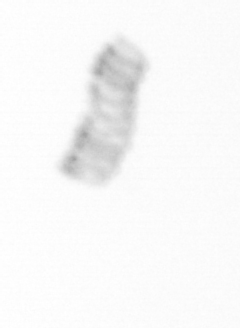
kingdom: Chromista
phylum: Ochrophyta
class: Bacillariophyceae
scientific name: Bacillariophyceae
